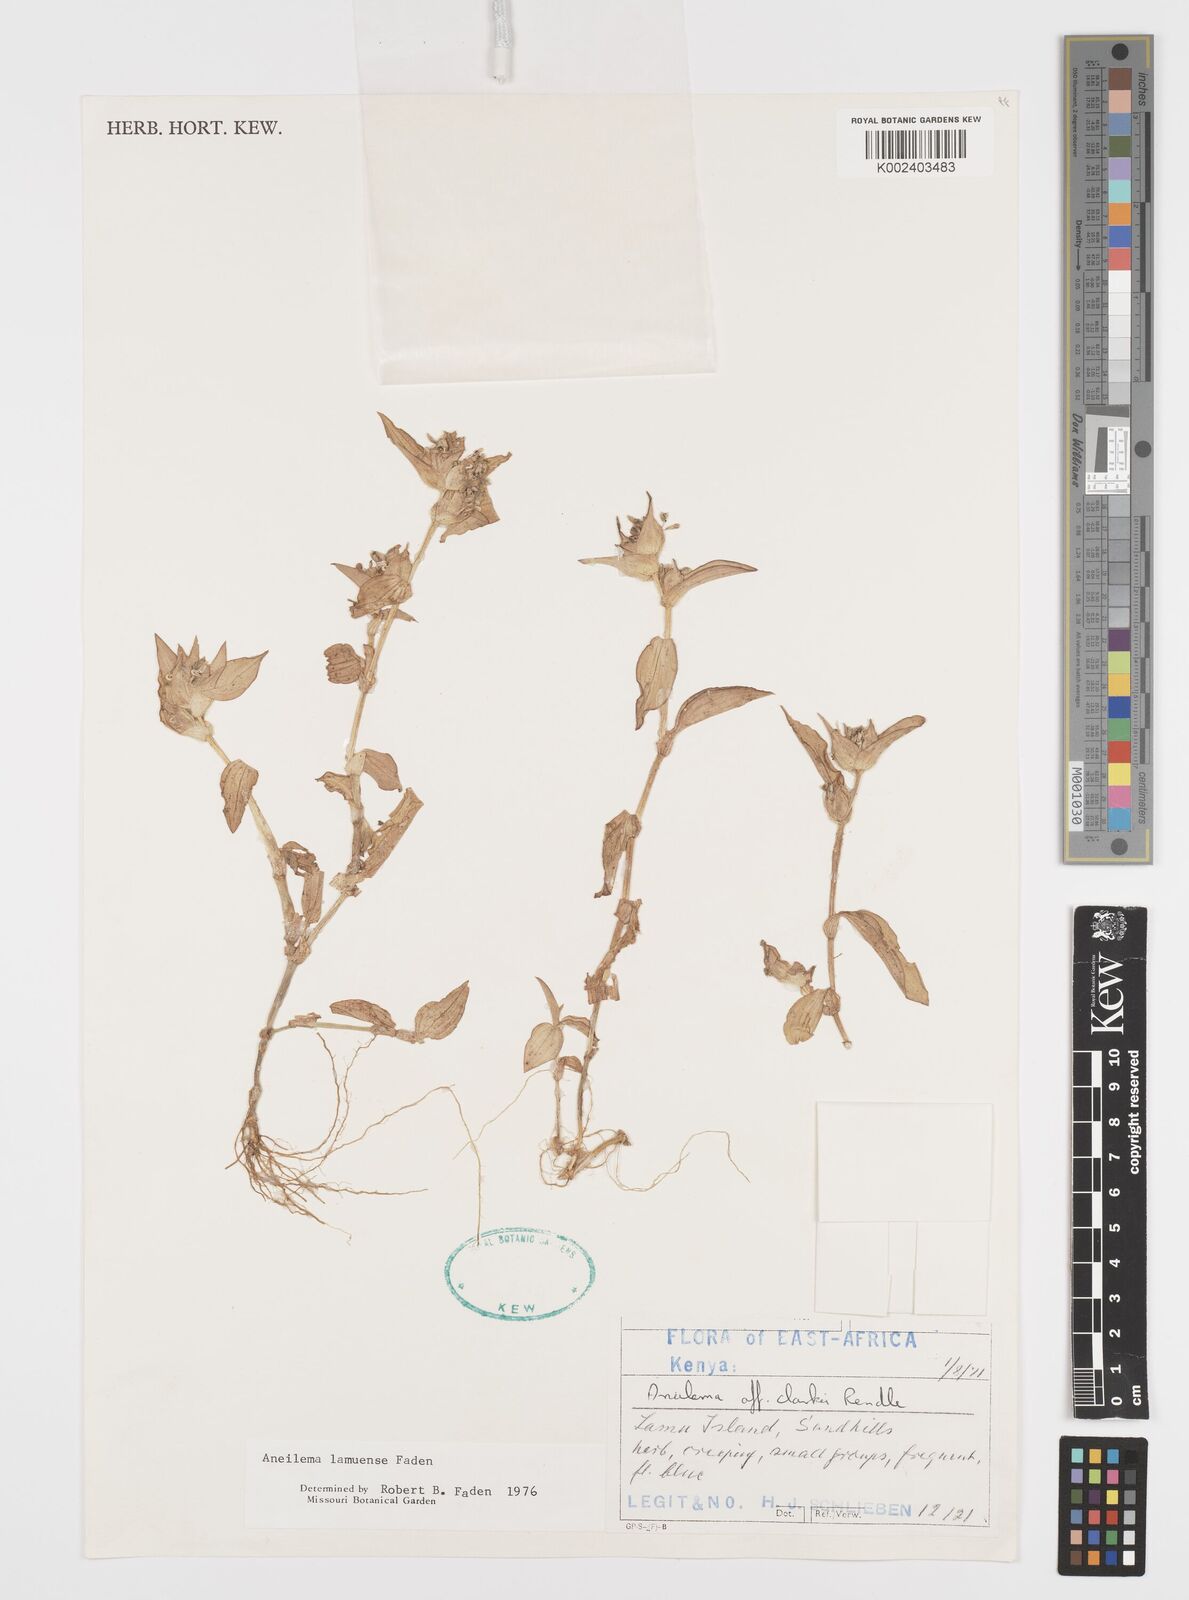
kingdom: Plantae
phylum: Tracheophyta
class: Liliopsida
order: Commelinales
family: Commelinaceae
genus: Aneilema
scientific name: Aneilema lamuense
